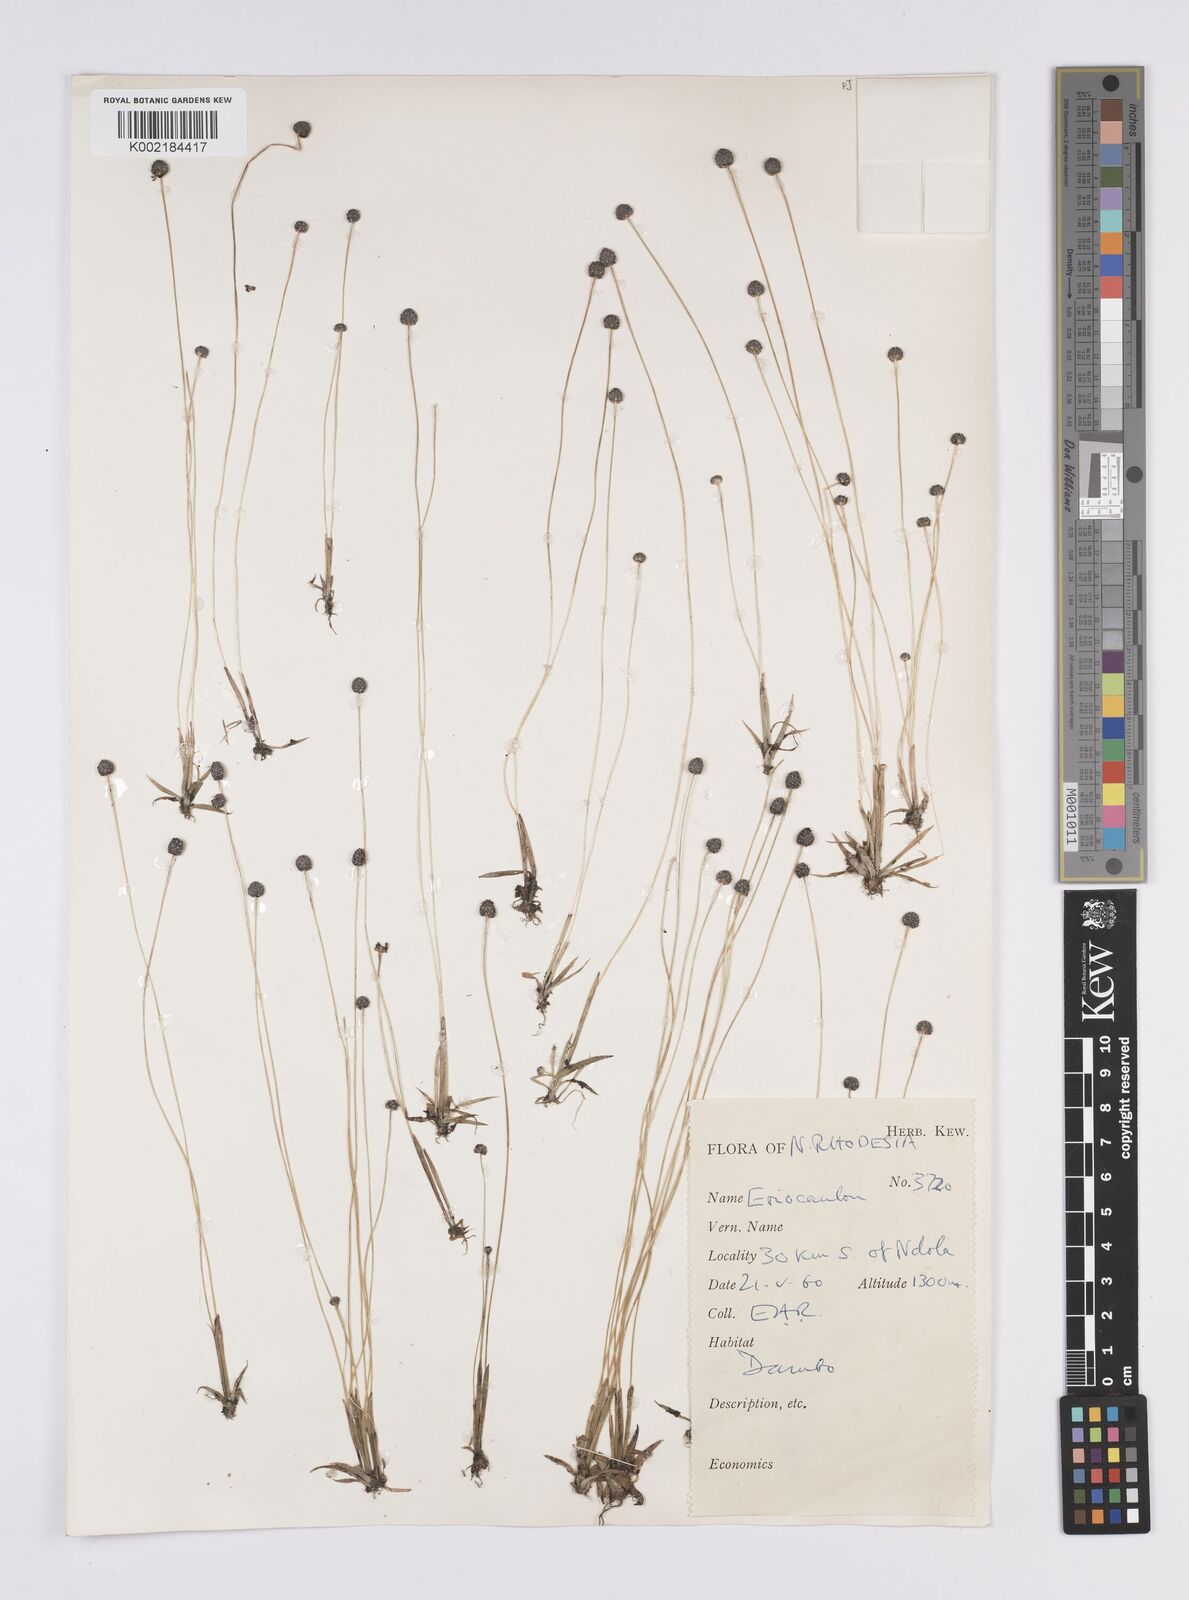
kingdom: Plantae
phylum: Tracheophyta
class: Liliopsida
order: Poales
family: Eriocaulaceae
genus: Eriocaulon
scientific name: Eriocaulon
